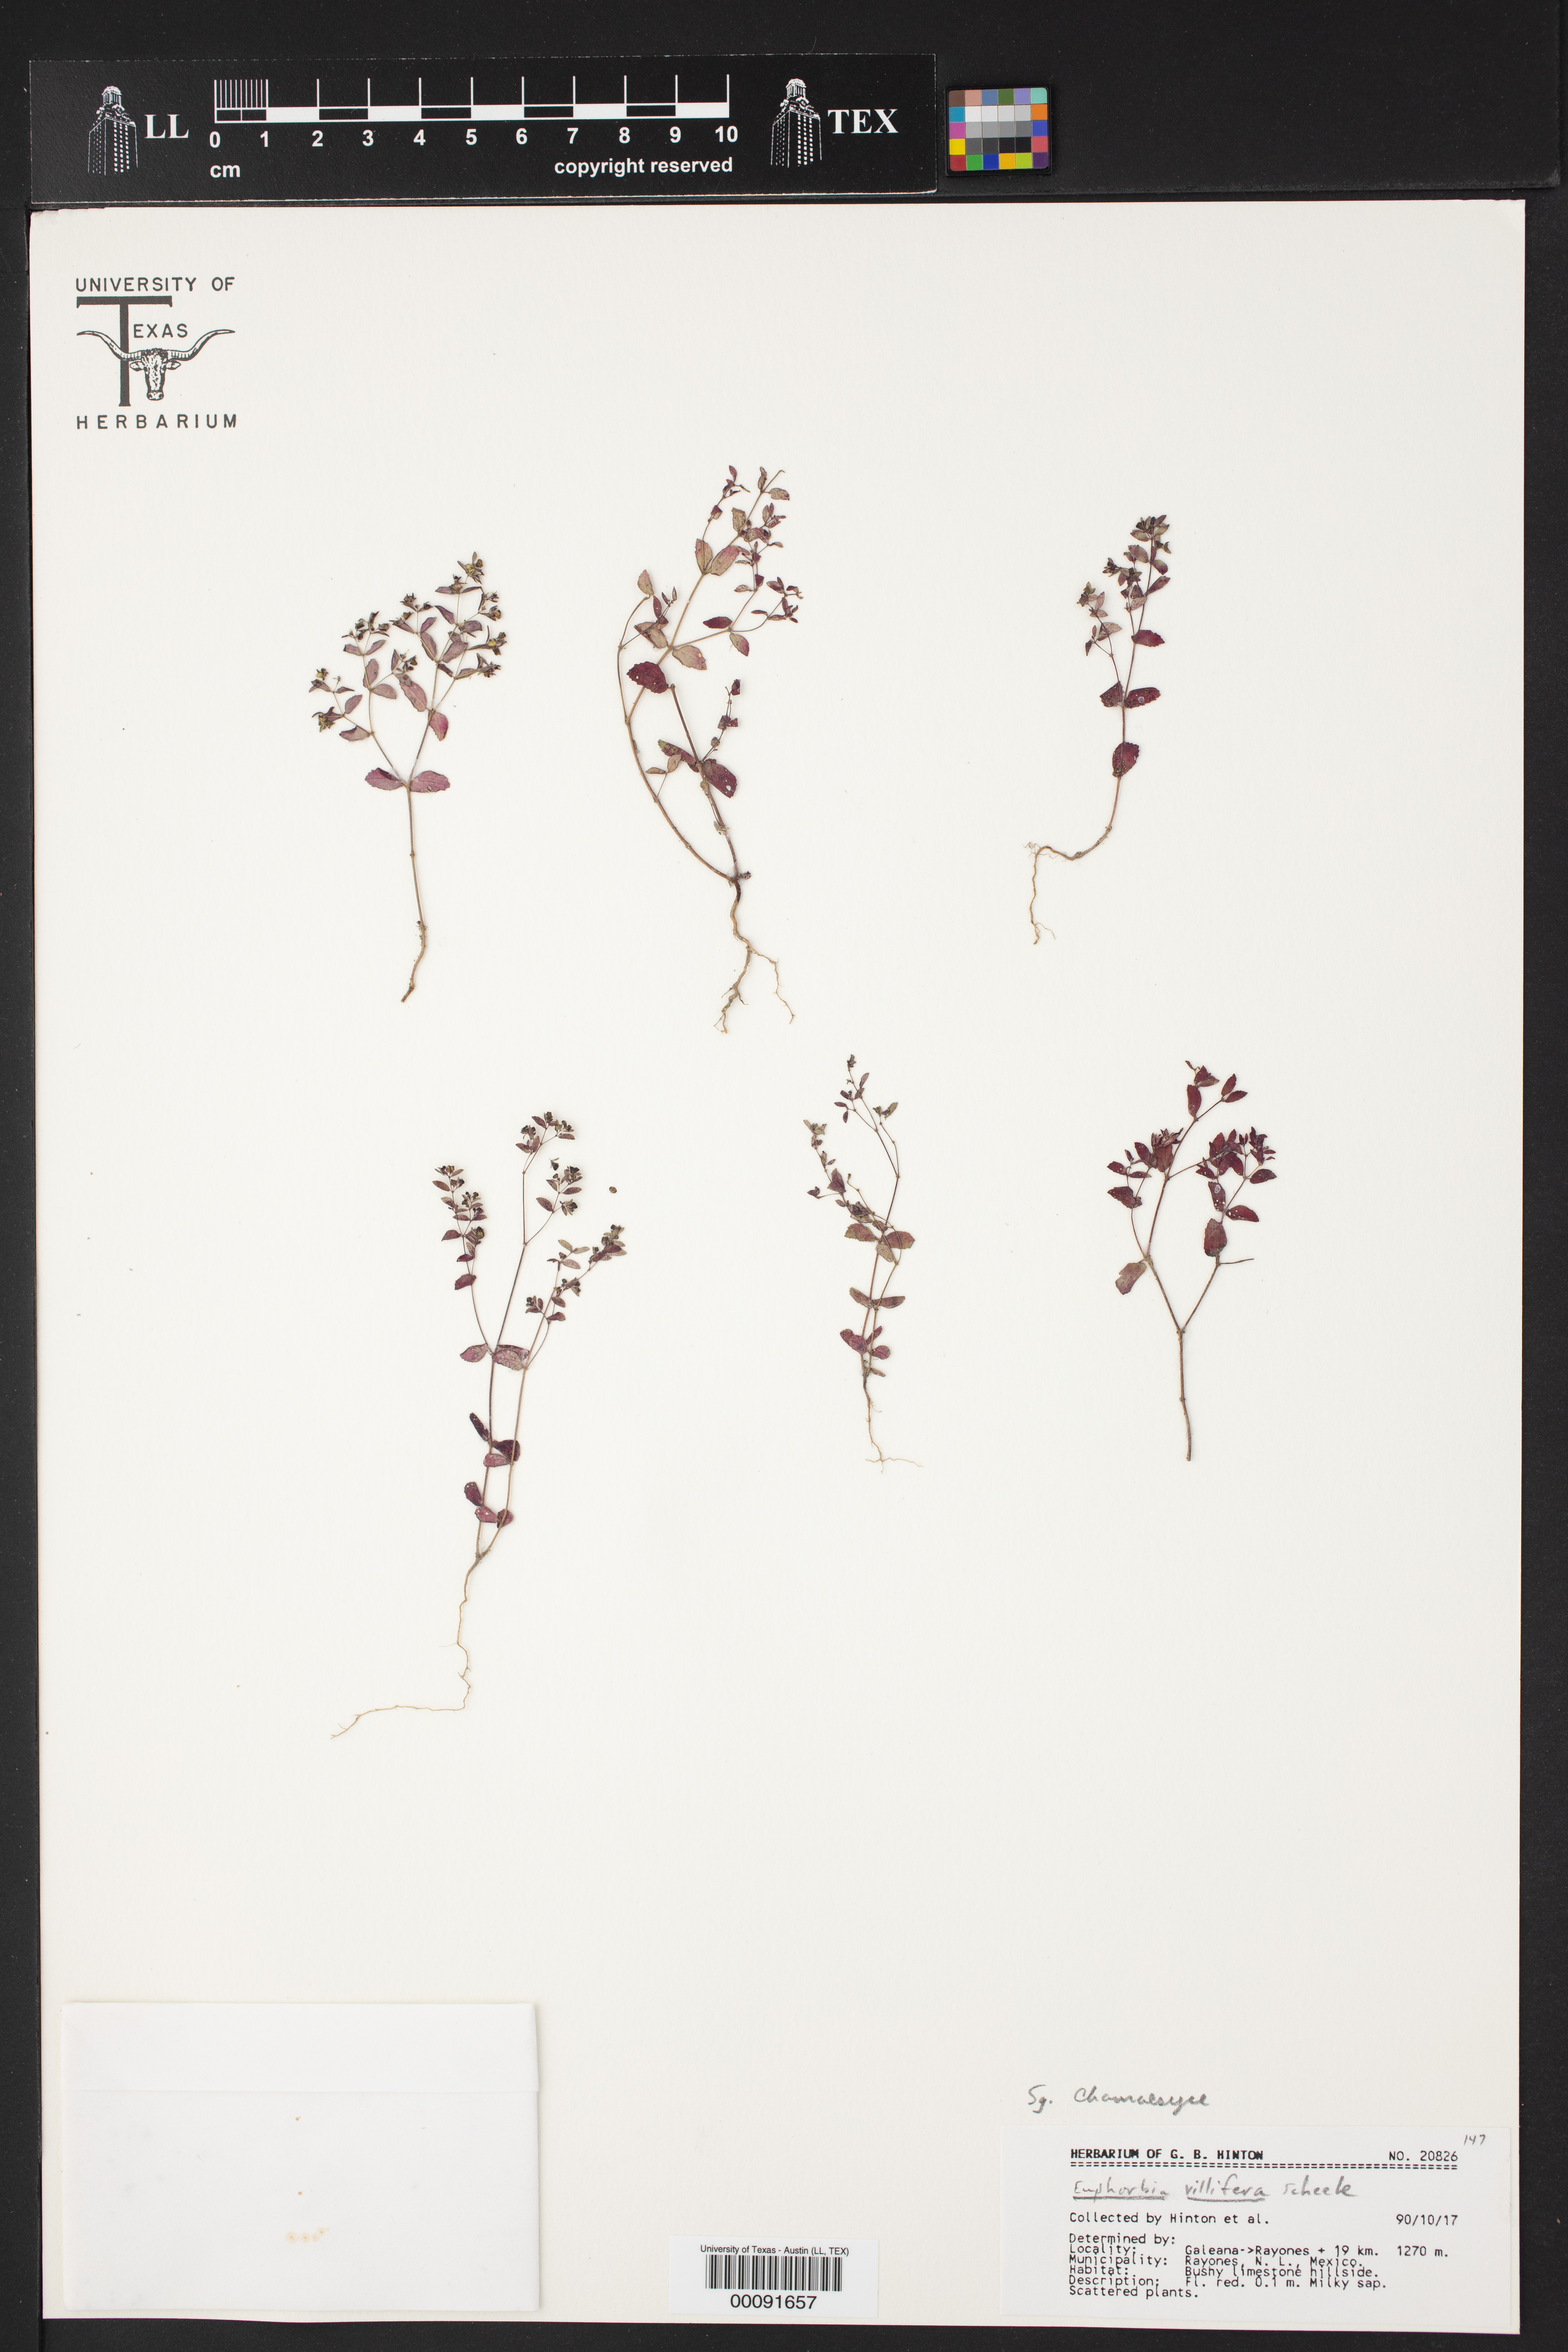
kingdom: Plantae
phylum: Tracheophyta
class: Magnoliopsida
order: Malpighiales
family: Euphorbiaceae
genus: Euphorbia
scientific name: Euphorbia villifera
